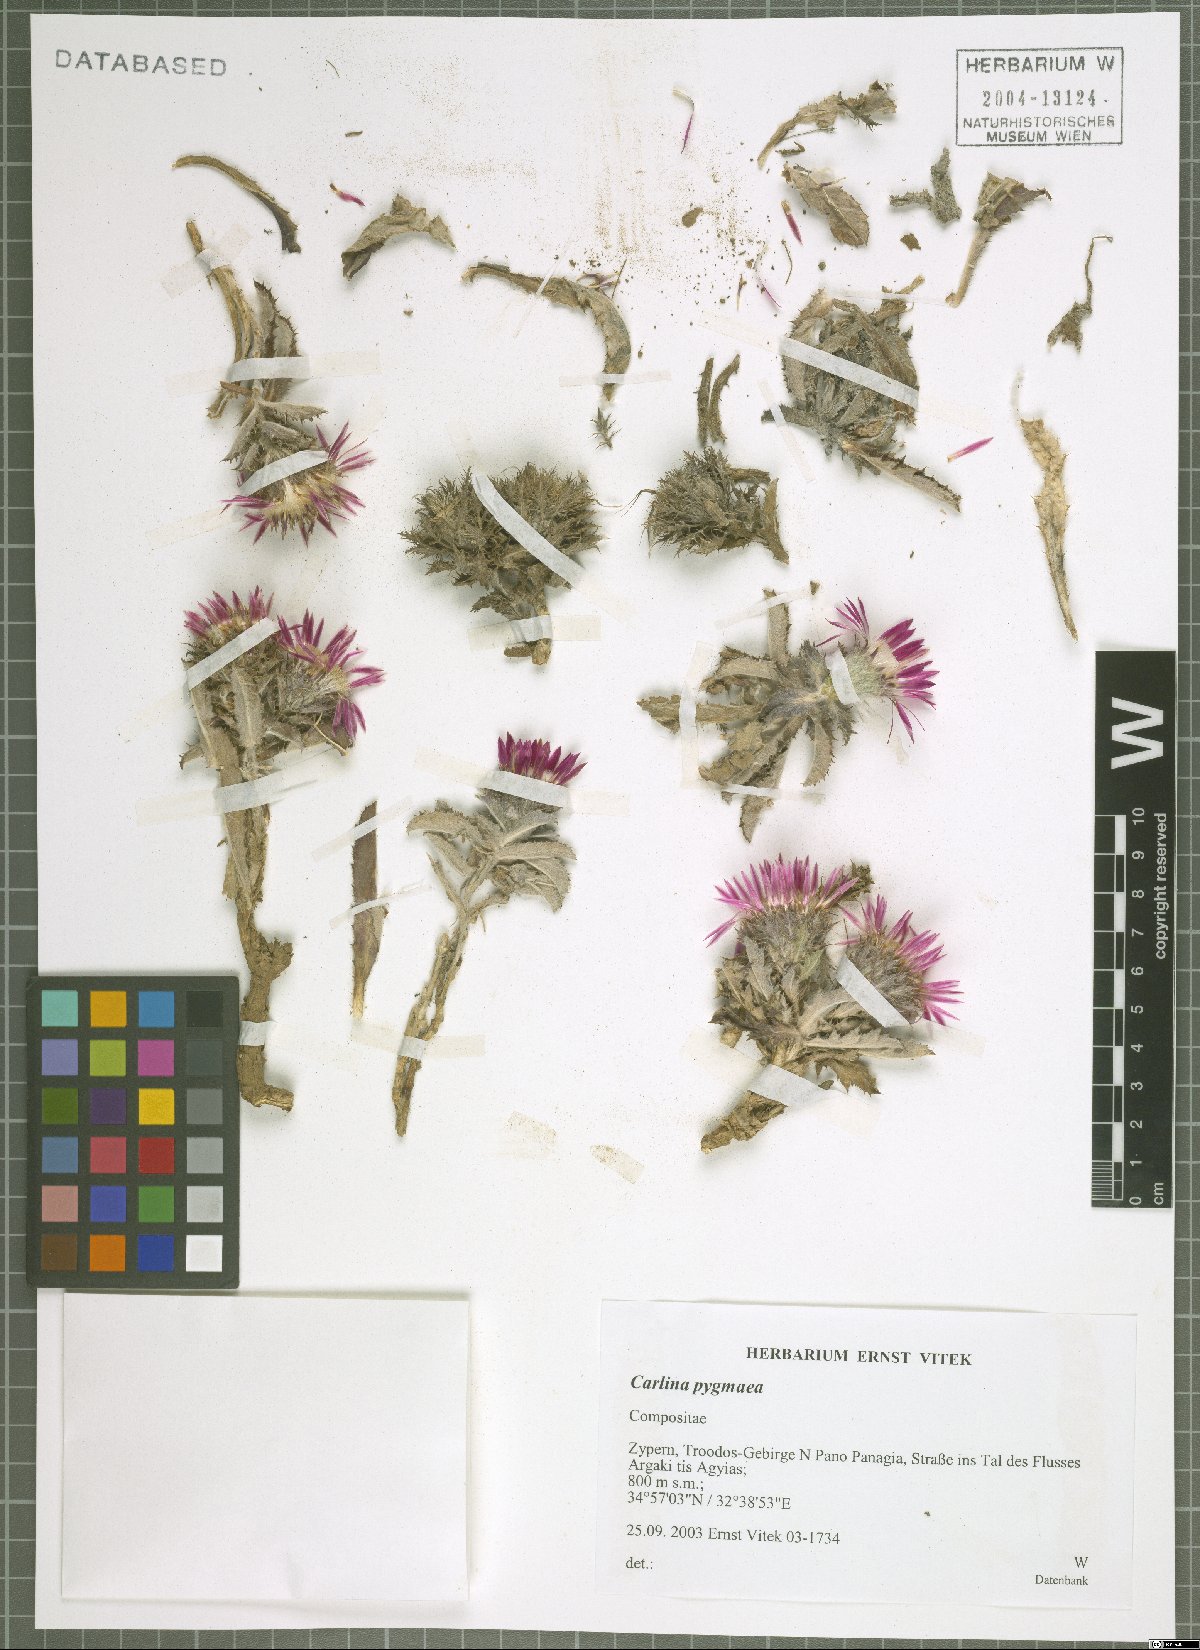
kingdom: Plantae
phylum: Tracheophyta
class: Magnoliopsida
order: Asterales
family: Asteraceae
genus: Carlina
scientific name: Carlina pygmaea
